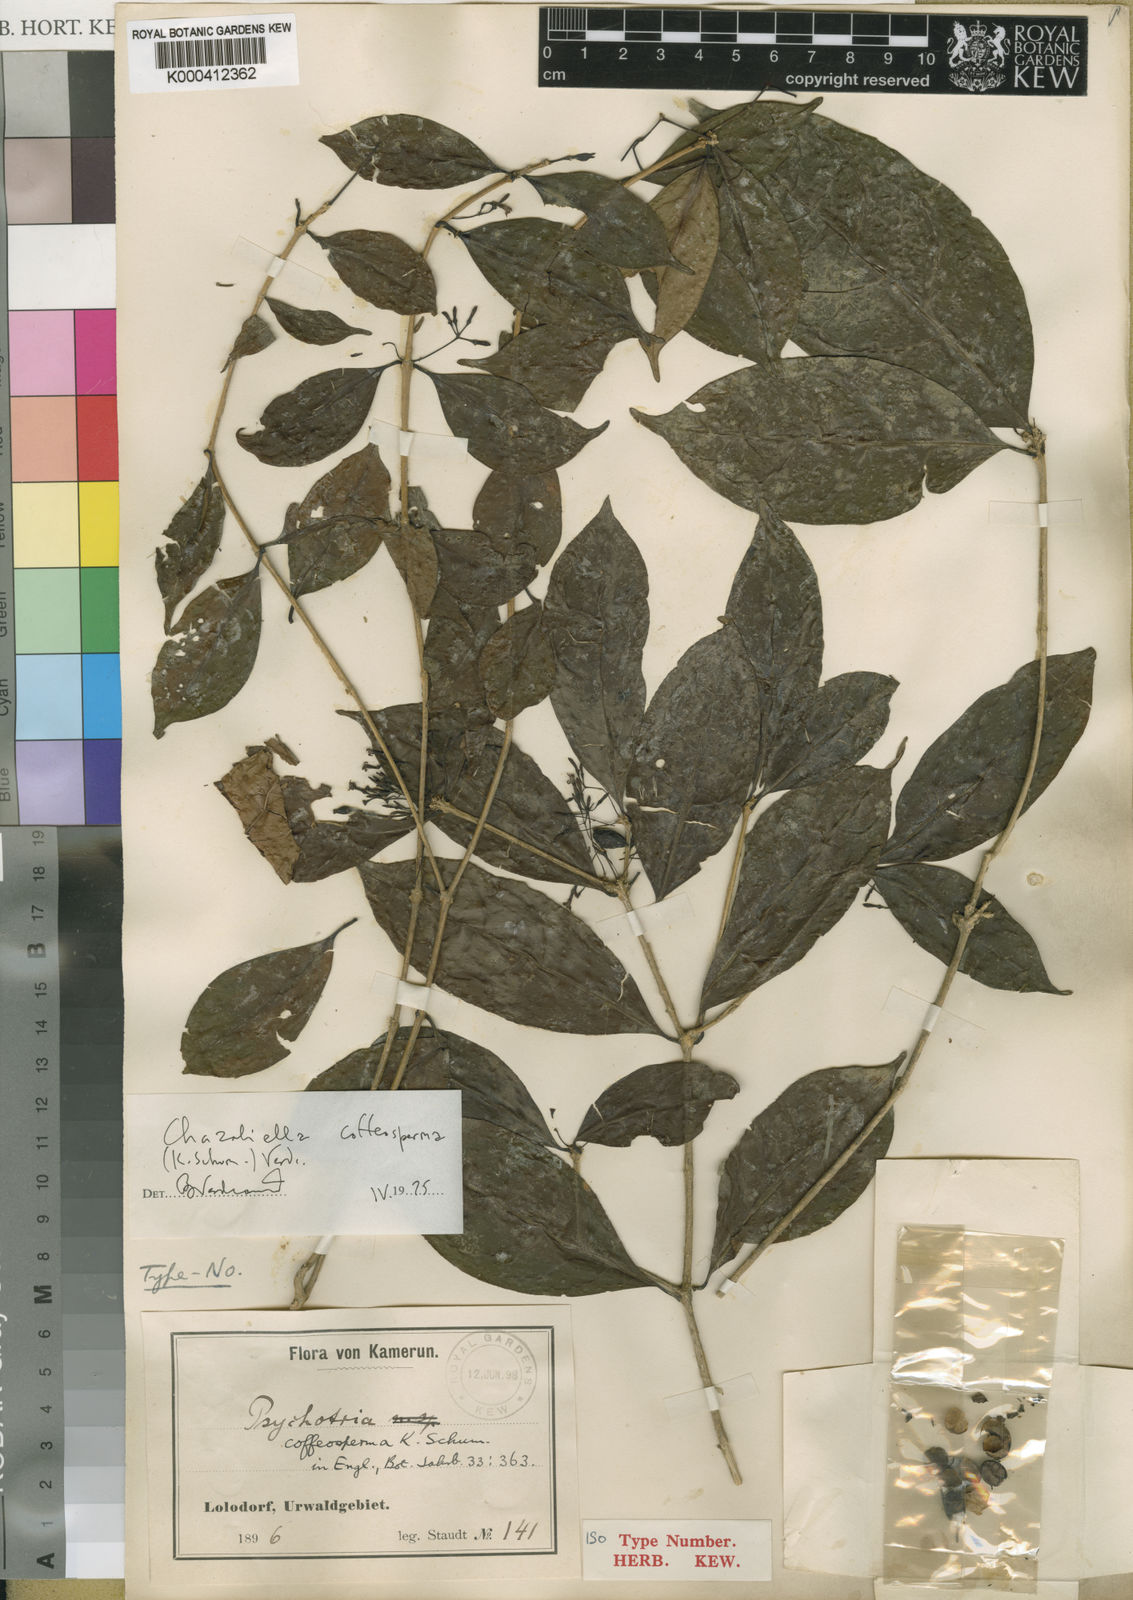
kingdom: Plantae
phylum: Tracheophyta
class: Magnoliopsida
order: Gentianales
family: Rubiaceae
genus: Eumachia
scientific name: Eumachia coffeosperma
